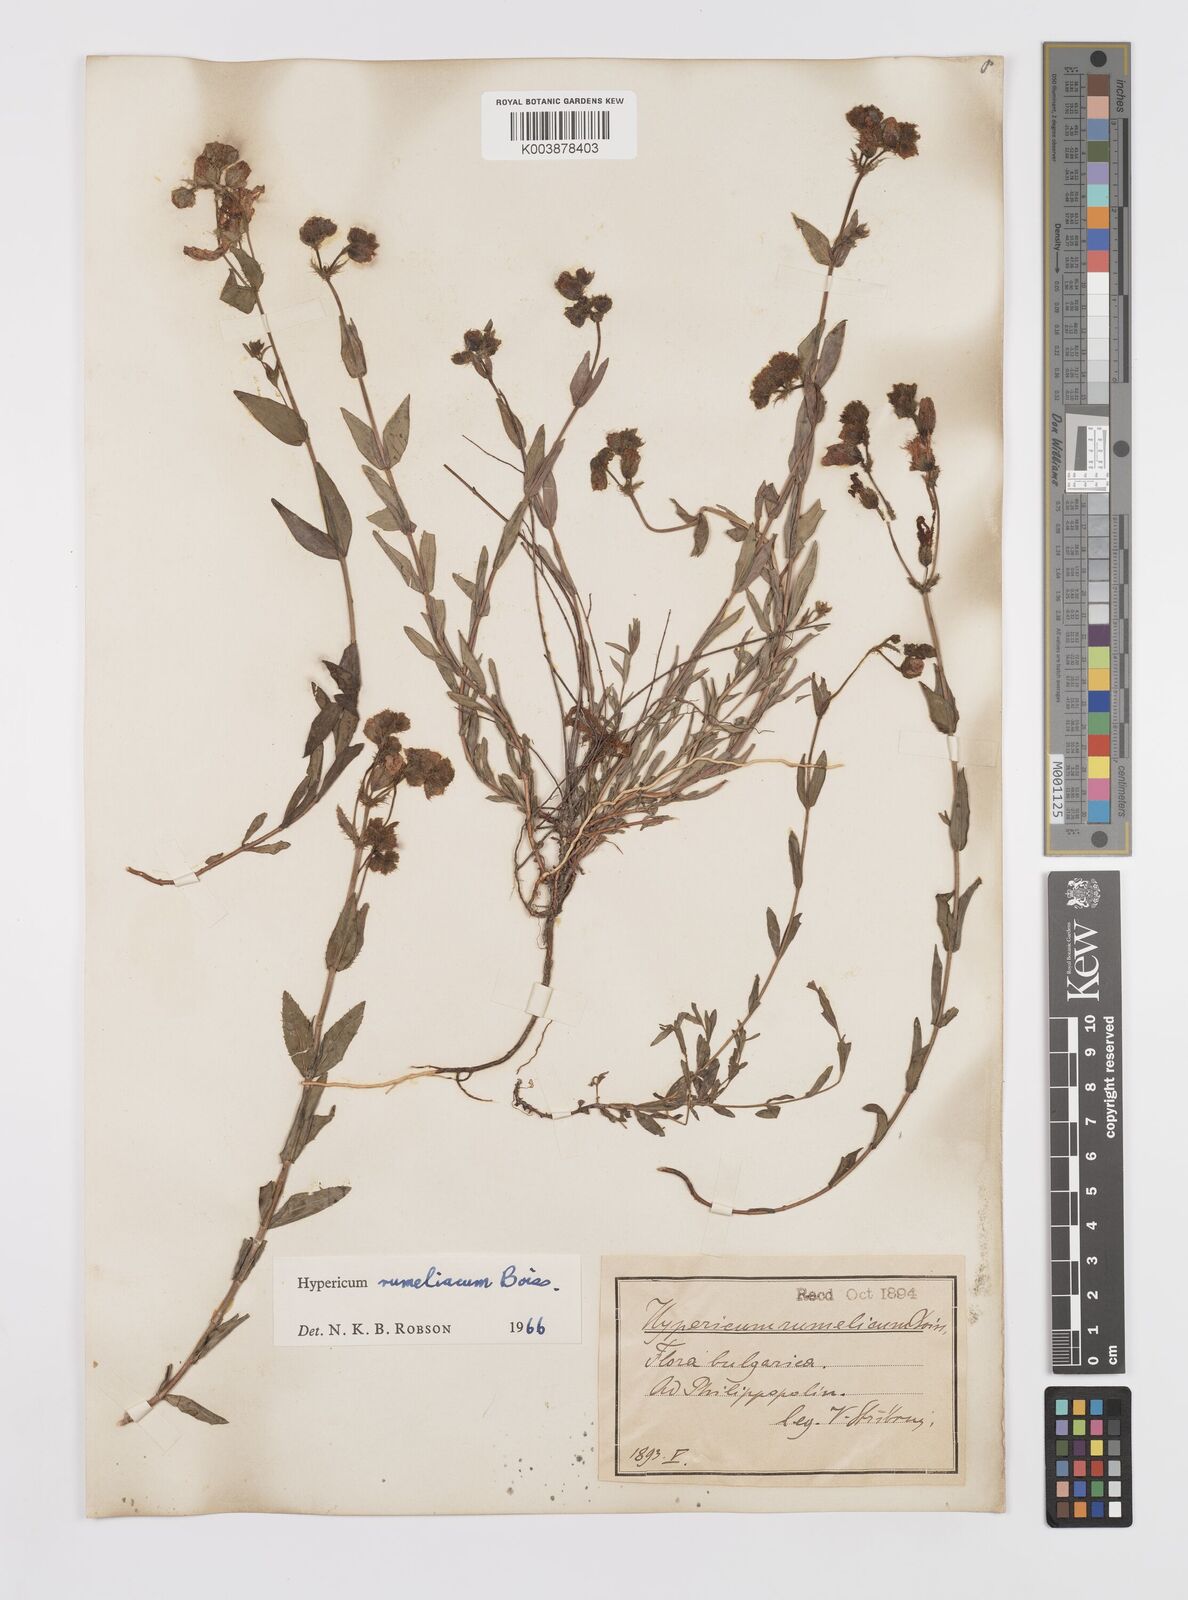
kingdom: Plantae
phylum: Tracheophyta
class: Magnoliopsida
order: Malpighiales
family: Hypericaceae
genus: Hypericum
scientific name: Hypericum rumeliacum
